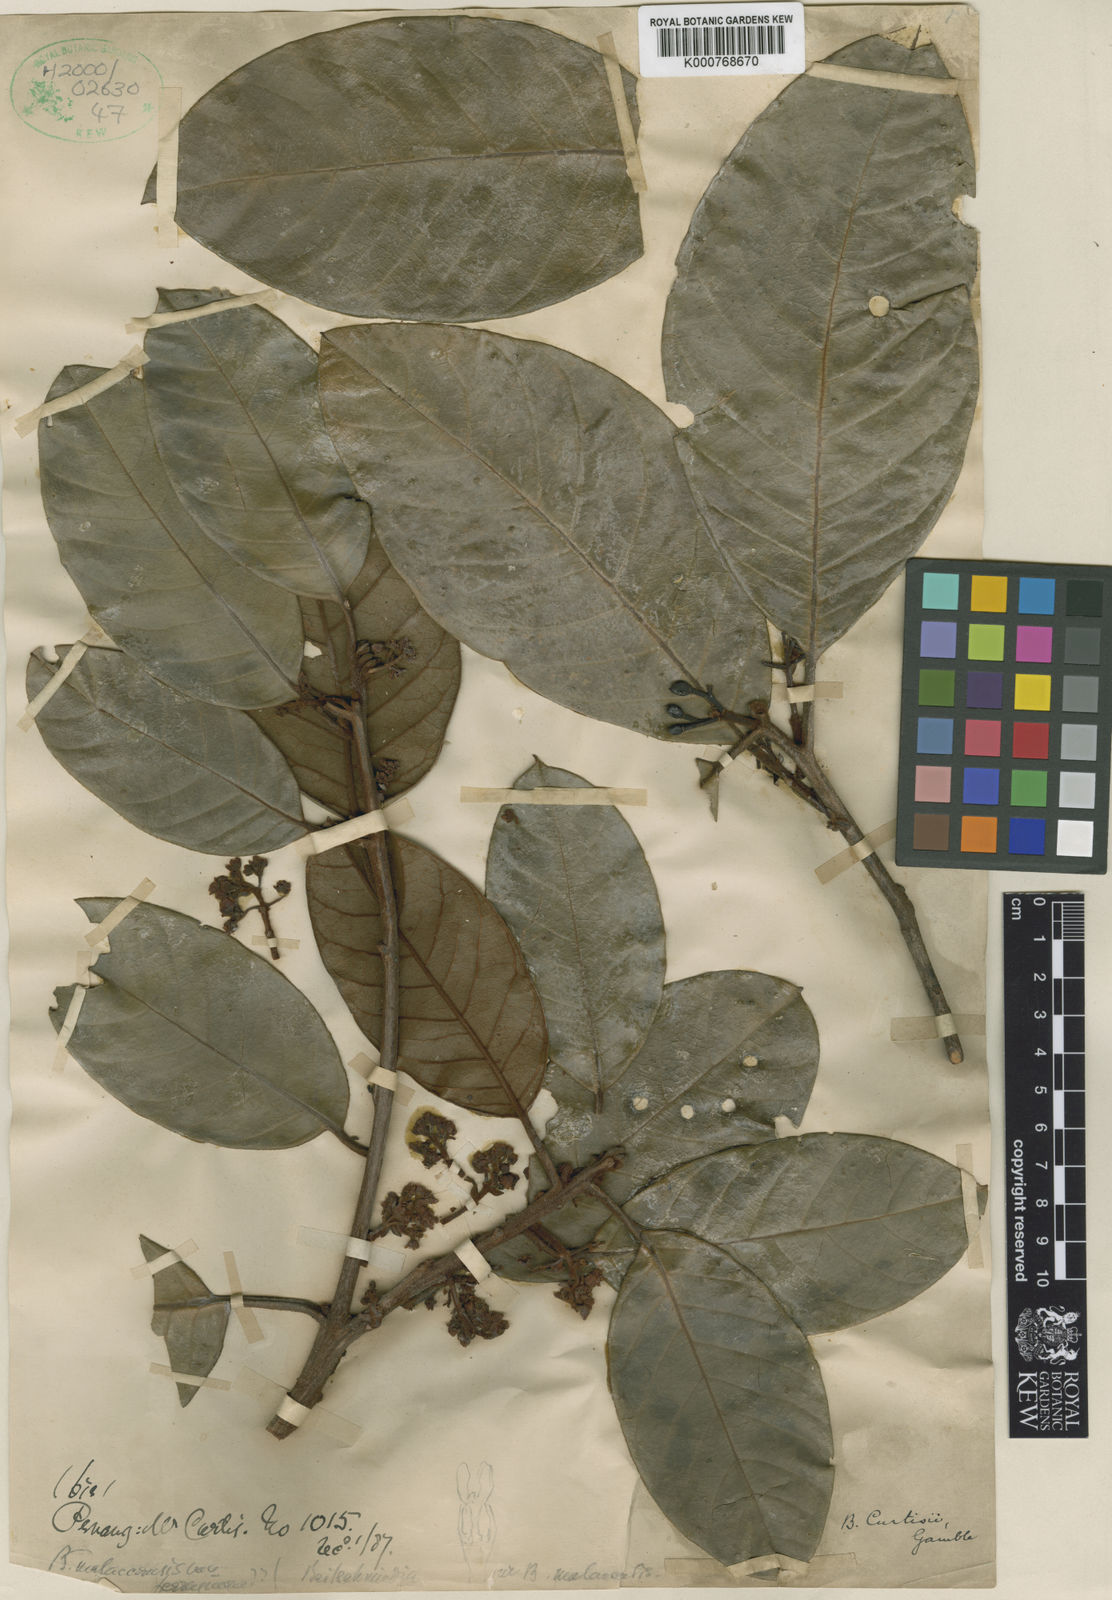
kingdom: Plantae
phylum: Tracheophyta
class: Magnoliopsida
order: Laurales
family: Lauraceae
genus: Beilschmiedia
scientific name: Beilschmiedia madang
